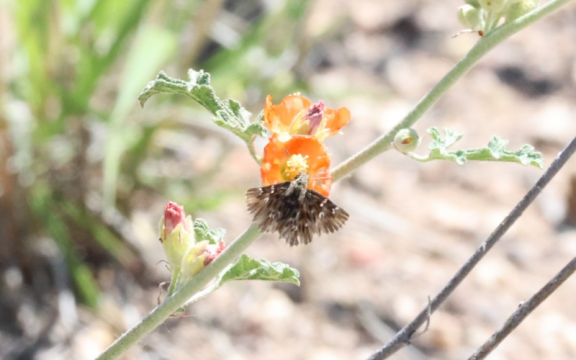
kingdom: Animalia
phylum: Arthropoda
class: Insecta
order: Lepidoptera
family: Hesperiidae
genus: Celotes
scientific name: Celotes nessus
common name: Common Streaky-Skipper
